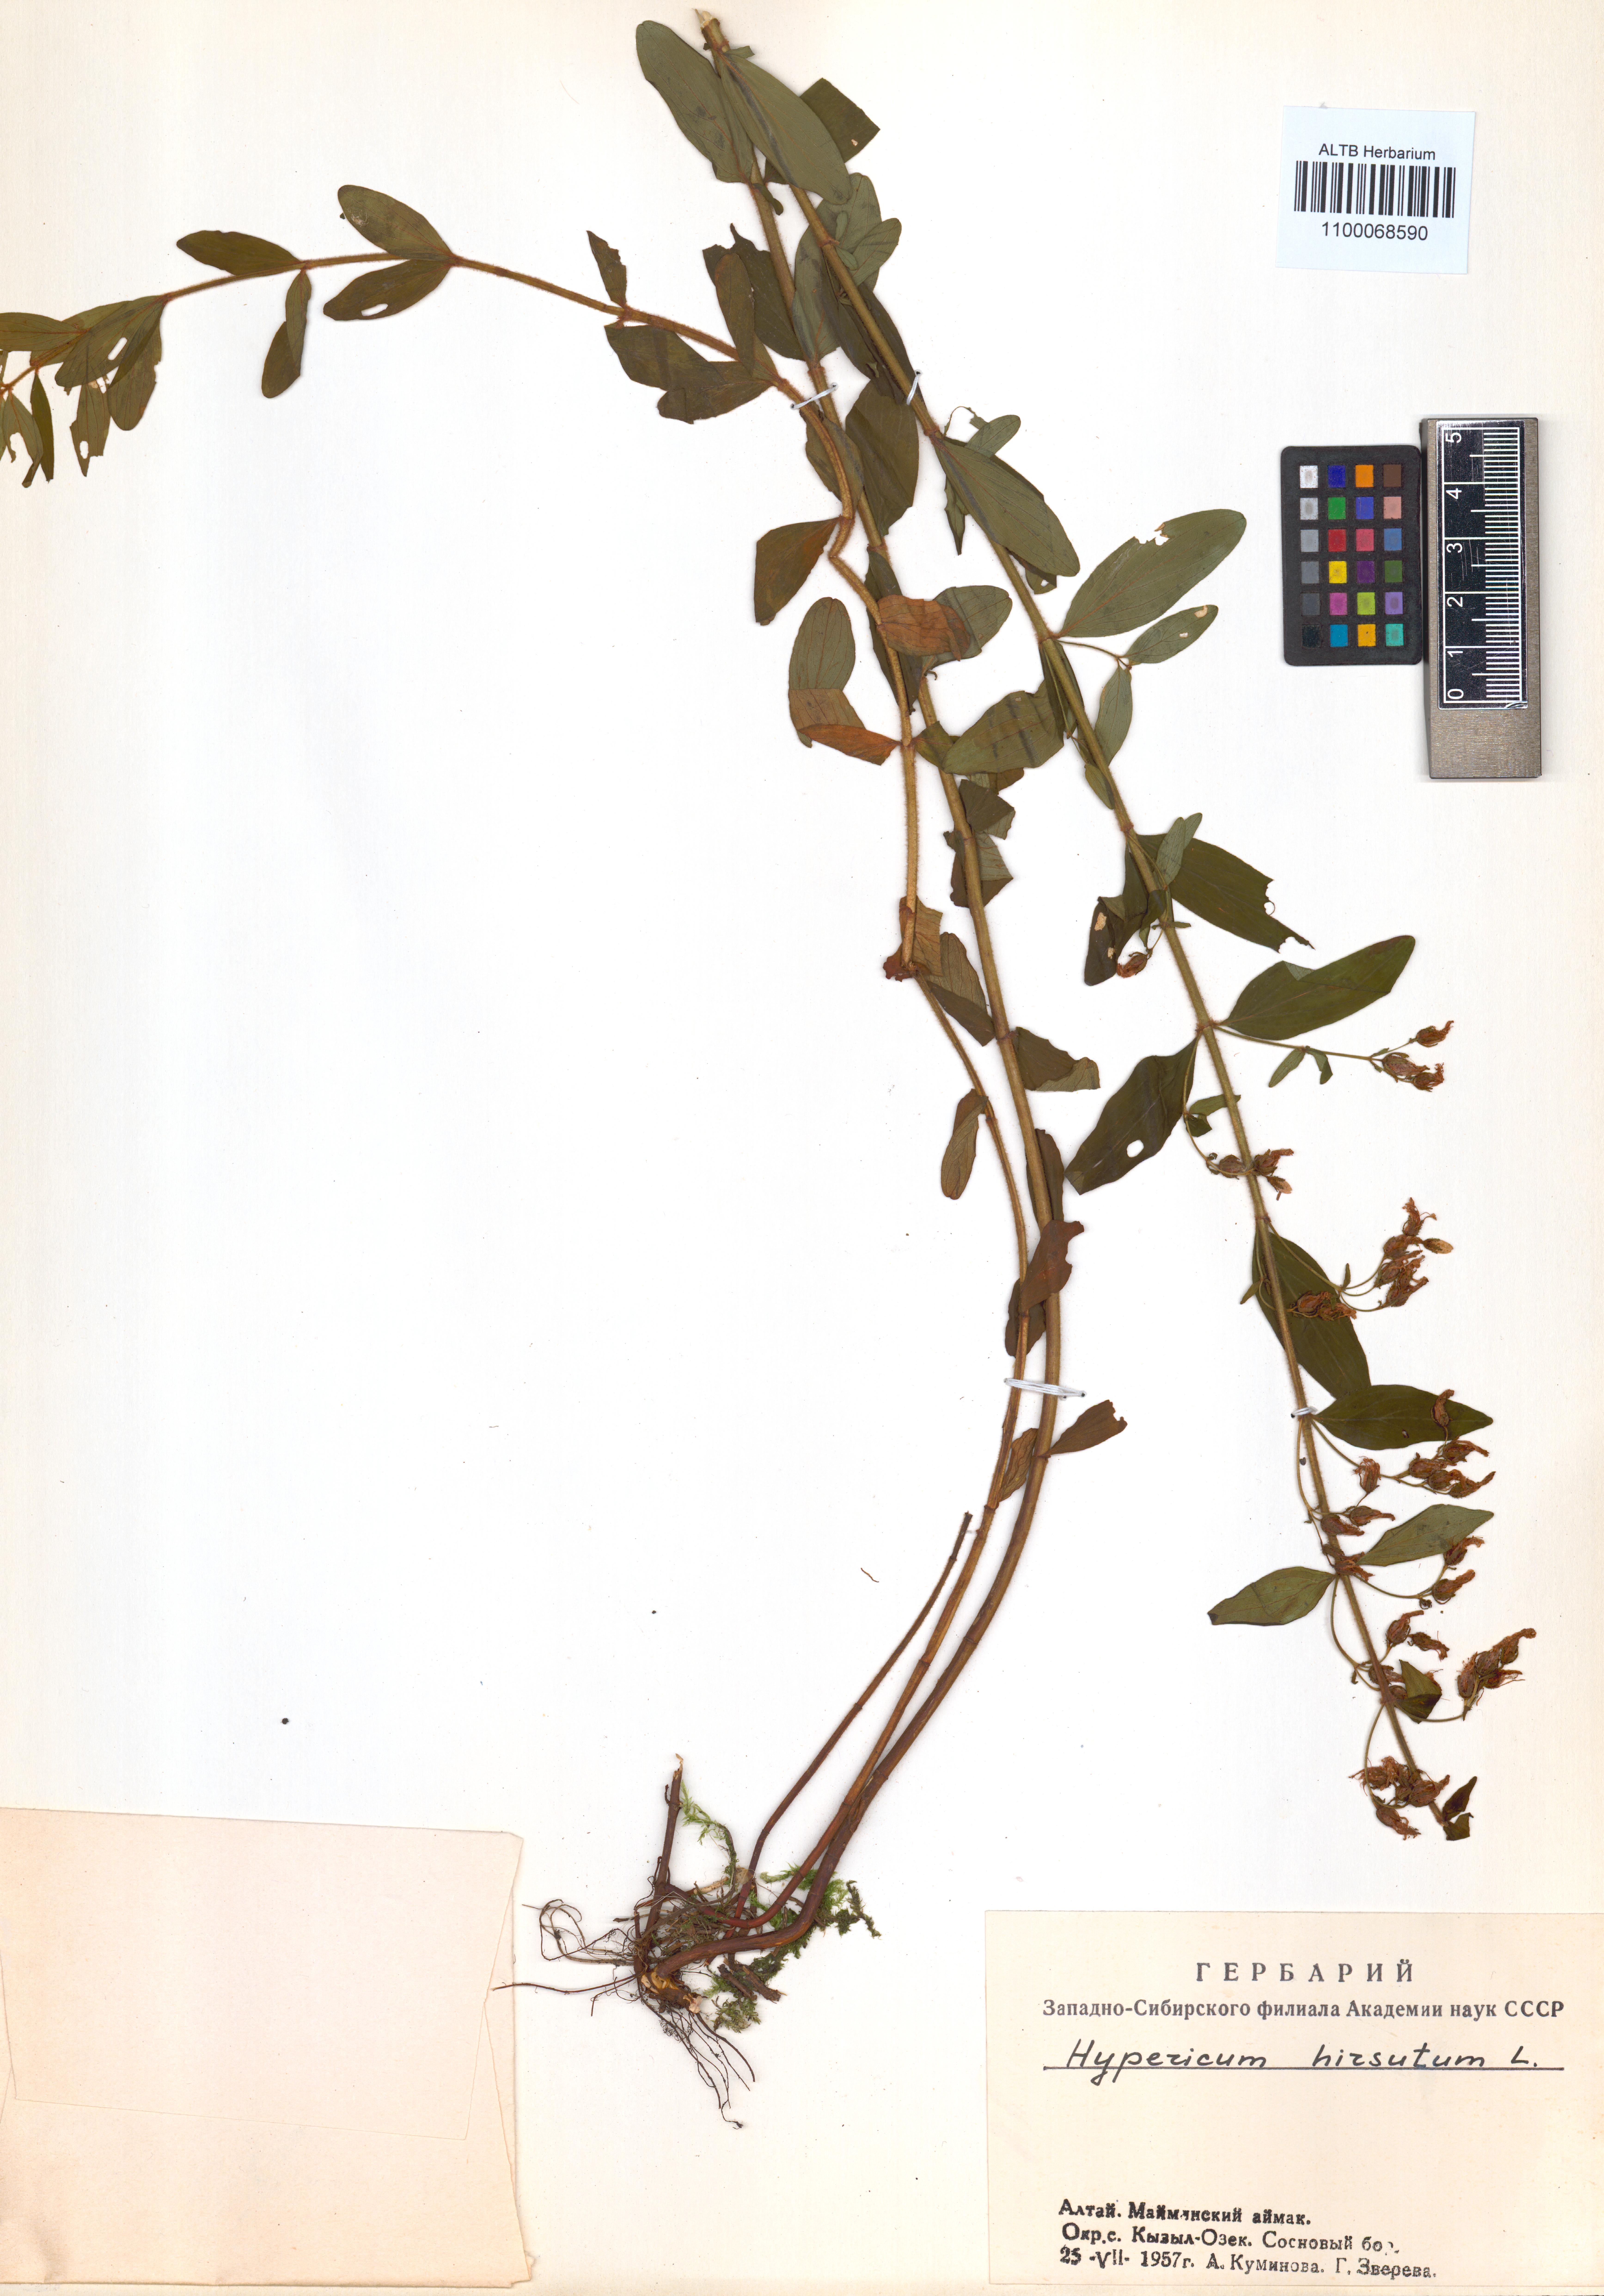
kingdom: Plantae
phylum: Tracheophyta
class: Magnoliopsida
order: Malpighiales
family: Hypericaceae
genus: Hypericum
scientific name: Hypericum hirsutum
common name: Hairy st. john's-wort
